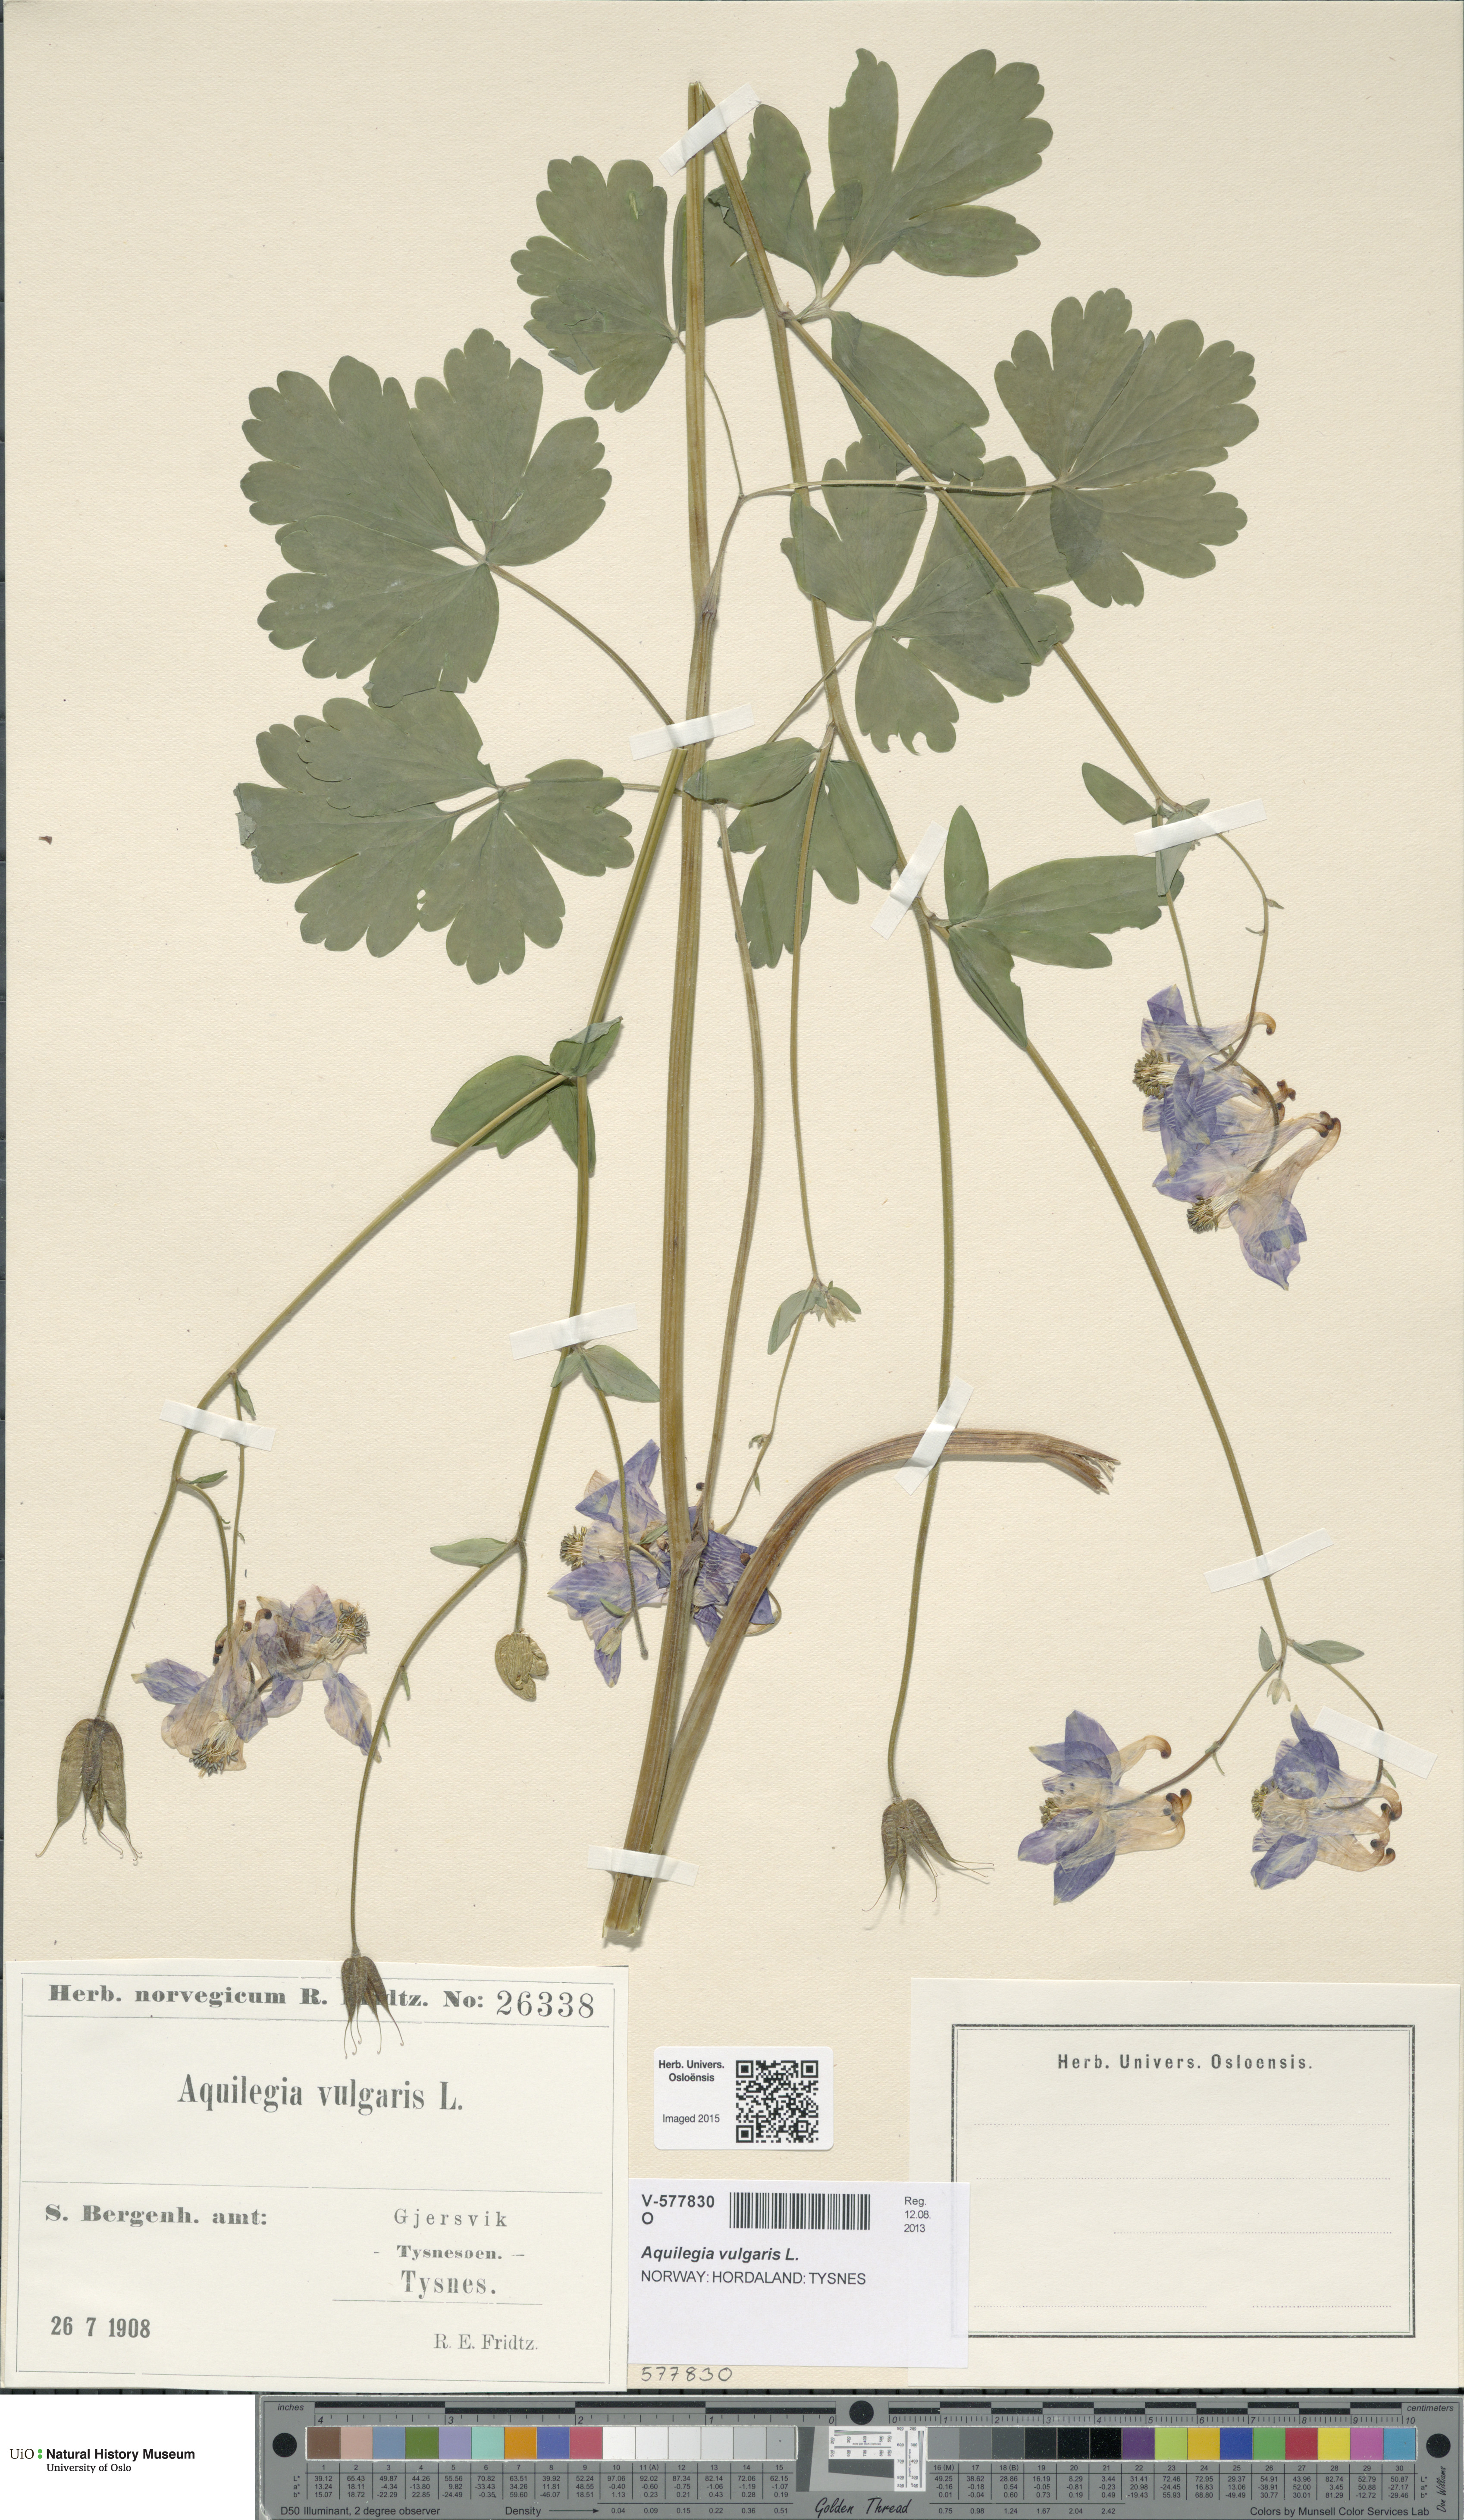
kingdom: Plantae
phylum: Tracheophyta
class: Magnoliopsida
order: Ranunculales
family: Ranunculaceae
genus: Aquilegia
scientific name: Aquilegia vulgaris
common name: Columbine
